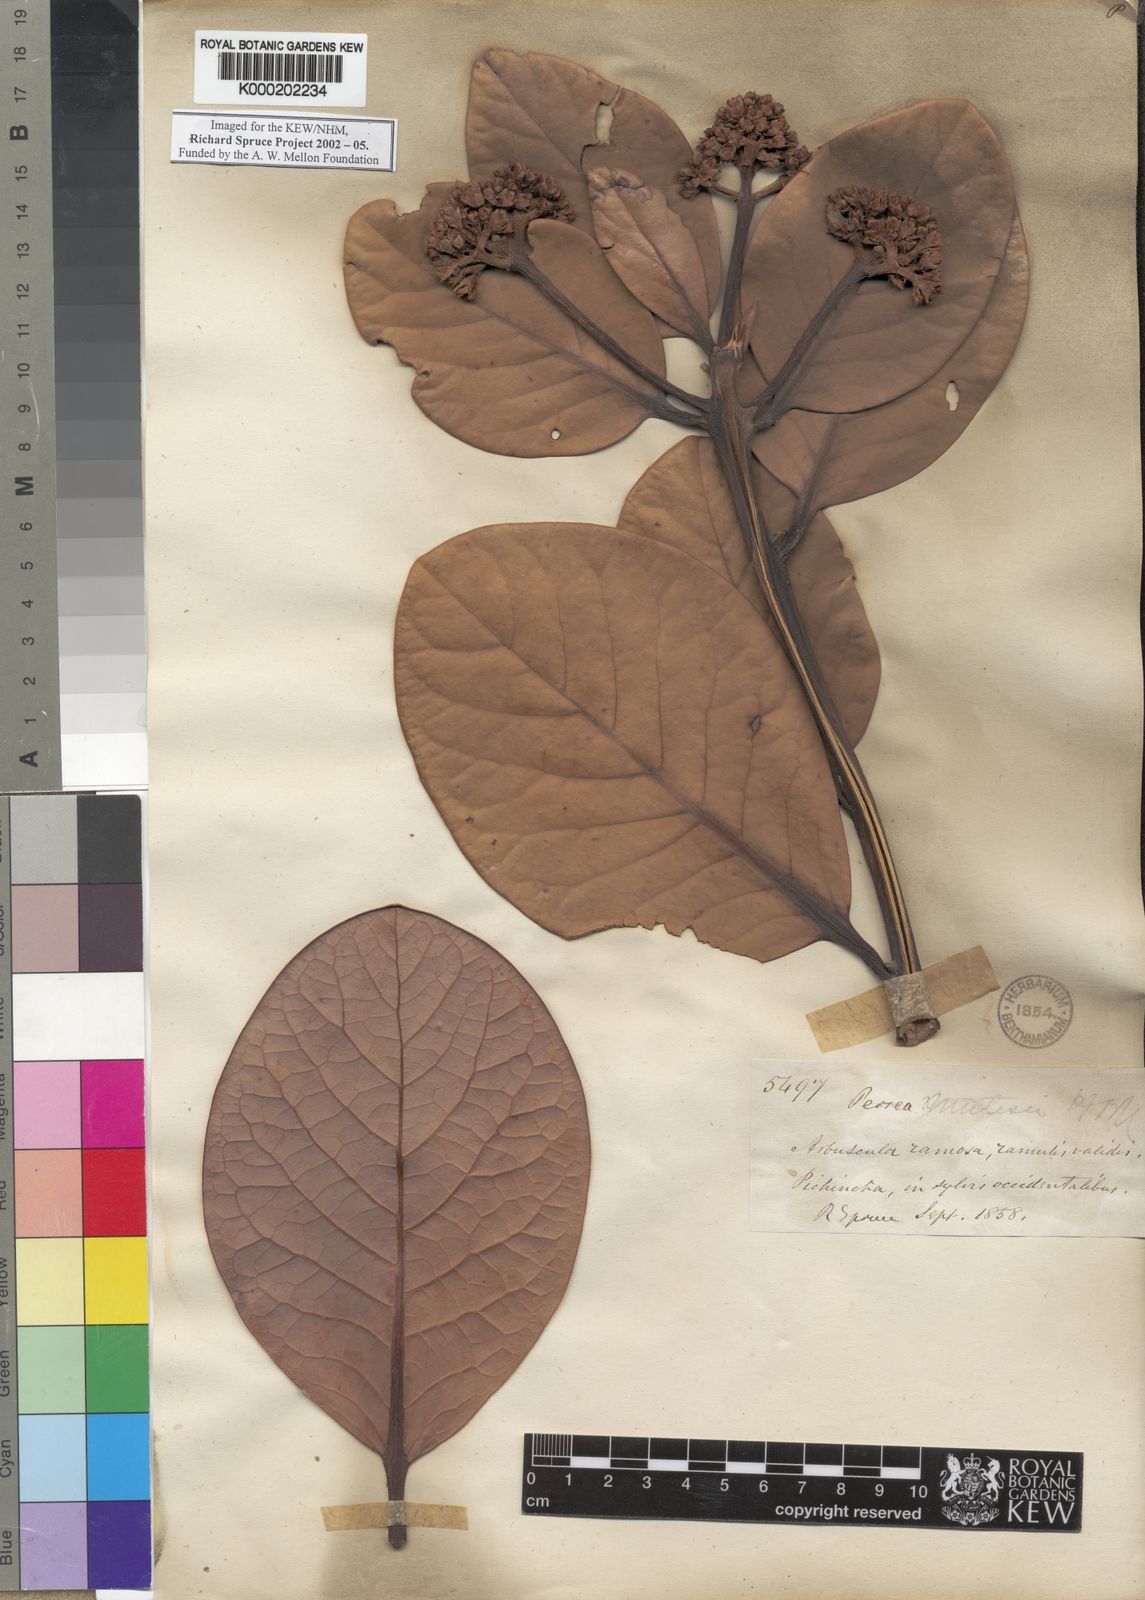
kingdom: Plantae
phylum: Tracheophyta
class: Magnoliopsida
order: Laurales
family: Lauraceae
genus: Persea
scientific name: Persea mutisii
